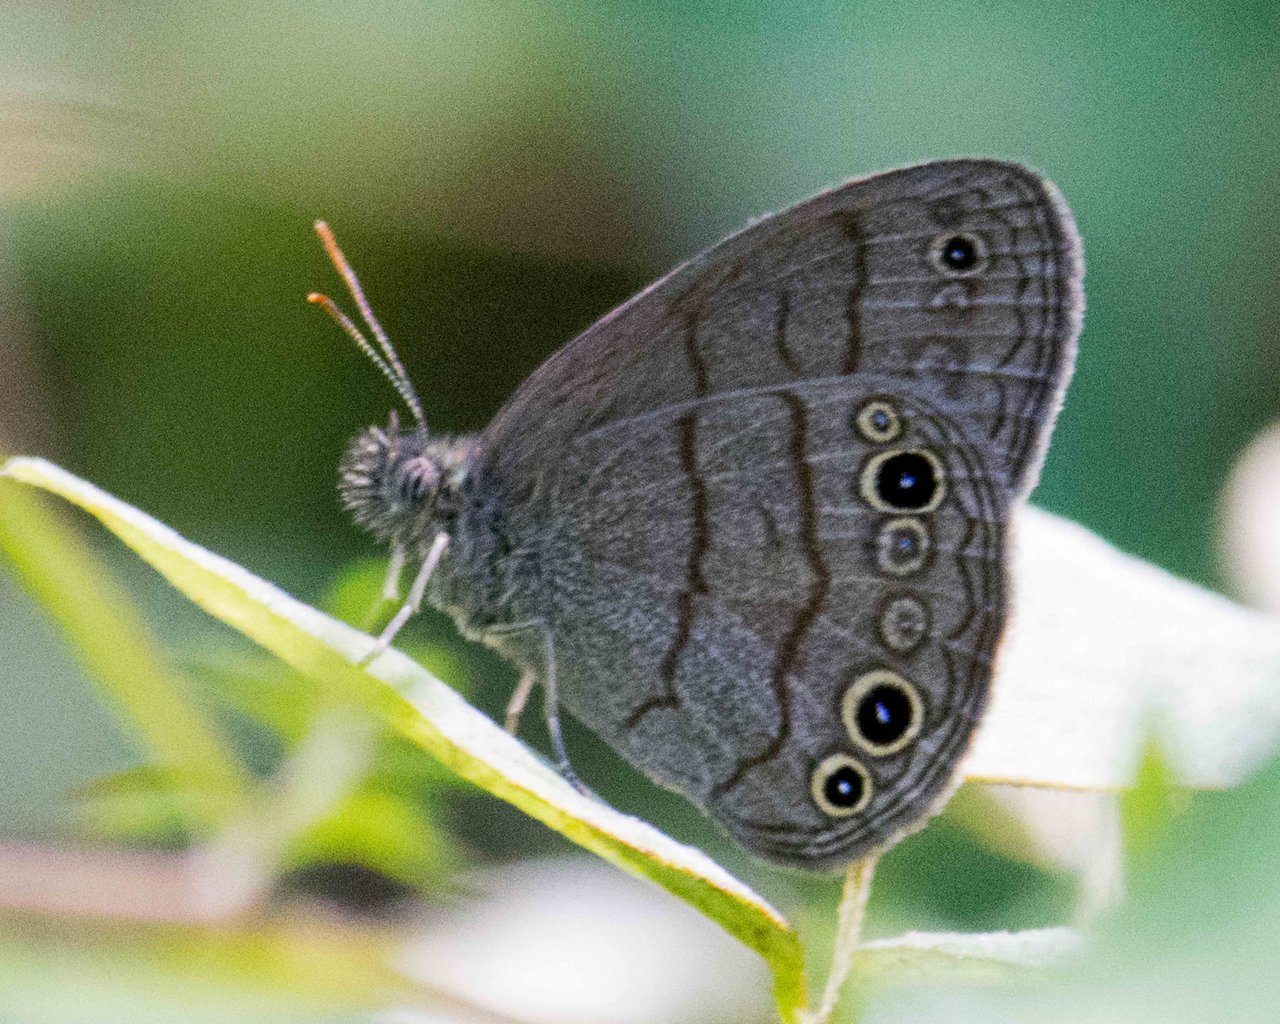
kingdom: Animalia
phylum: Arthropoda
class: Insecta
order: Lepidoptera
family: Nymphalidae
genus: Hermeuptychia
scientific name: Hermeuptychia intricata
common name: Intricate Satyr
